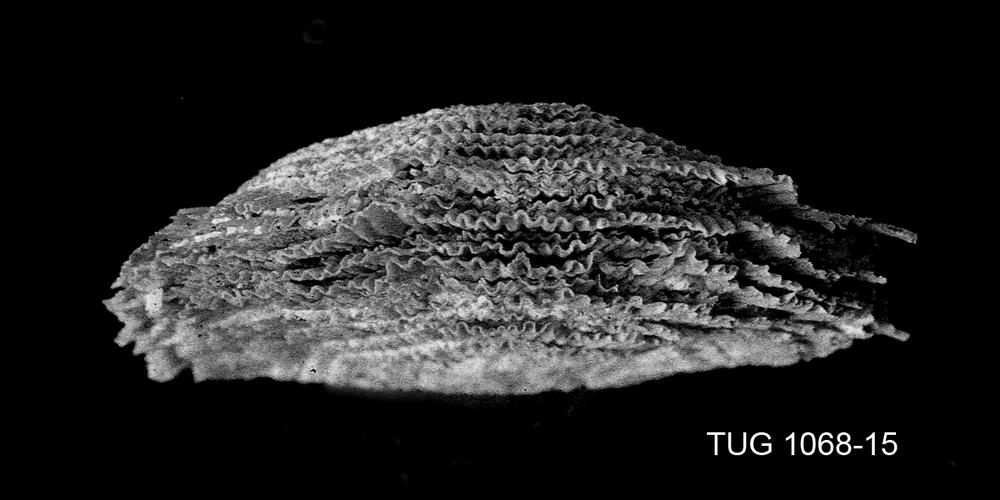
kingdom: Animalia
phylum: Brachiopoda
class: Rhynchonellata
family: Clitambonitidae
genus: Clitambonites
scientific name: Clitambonites Orthisina schmidti
